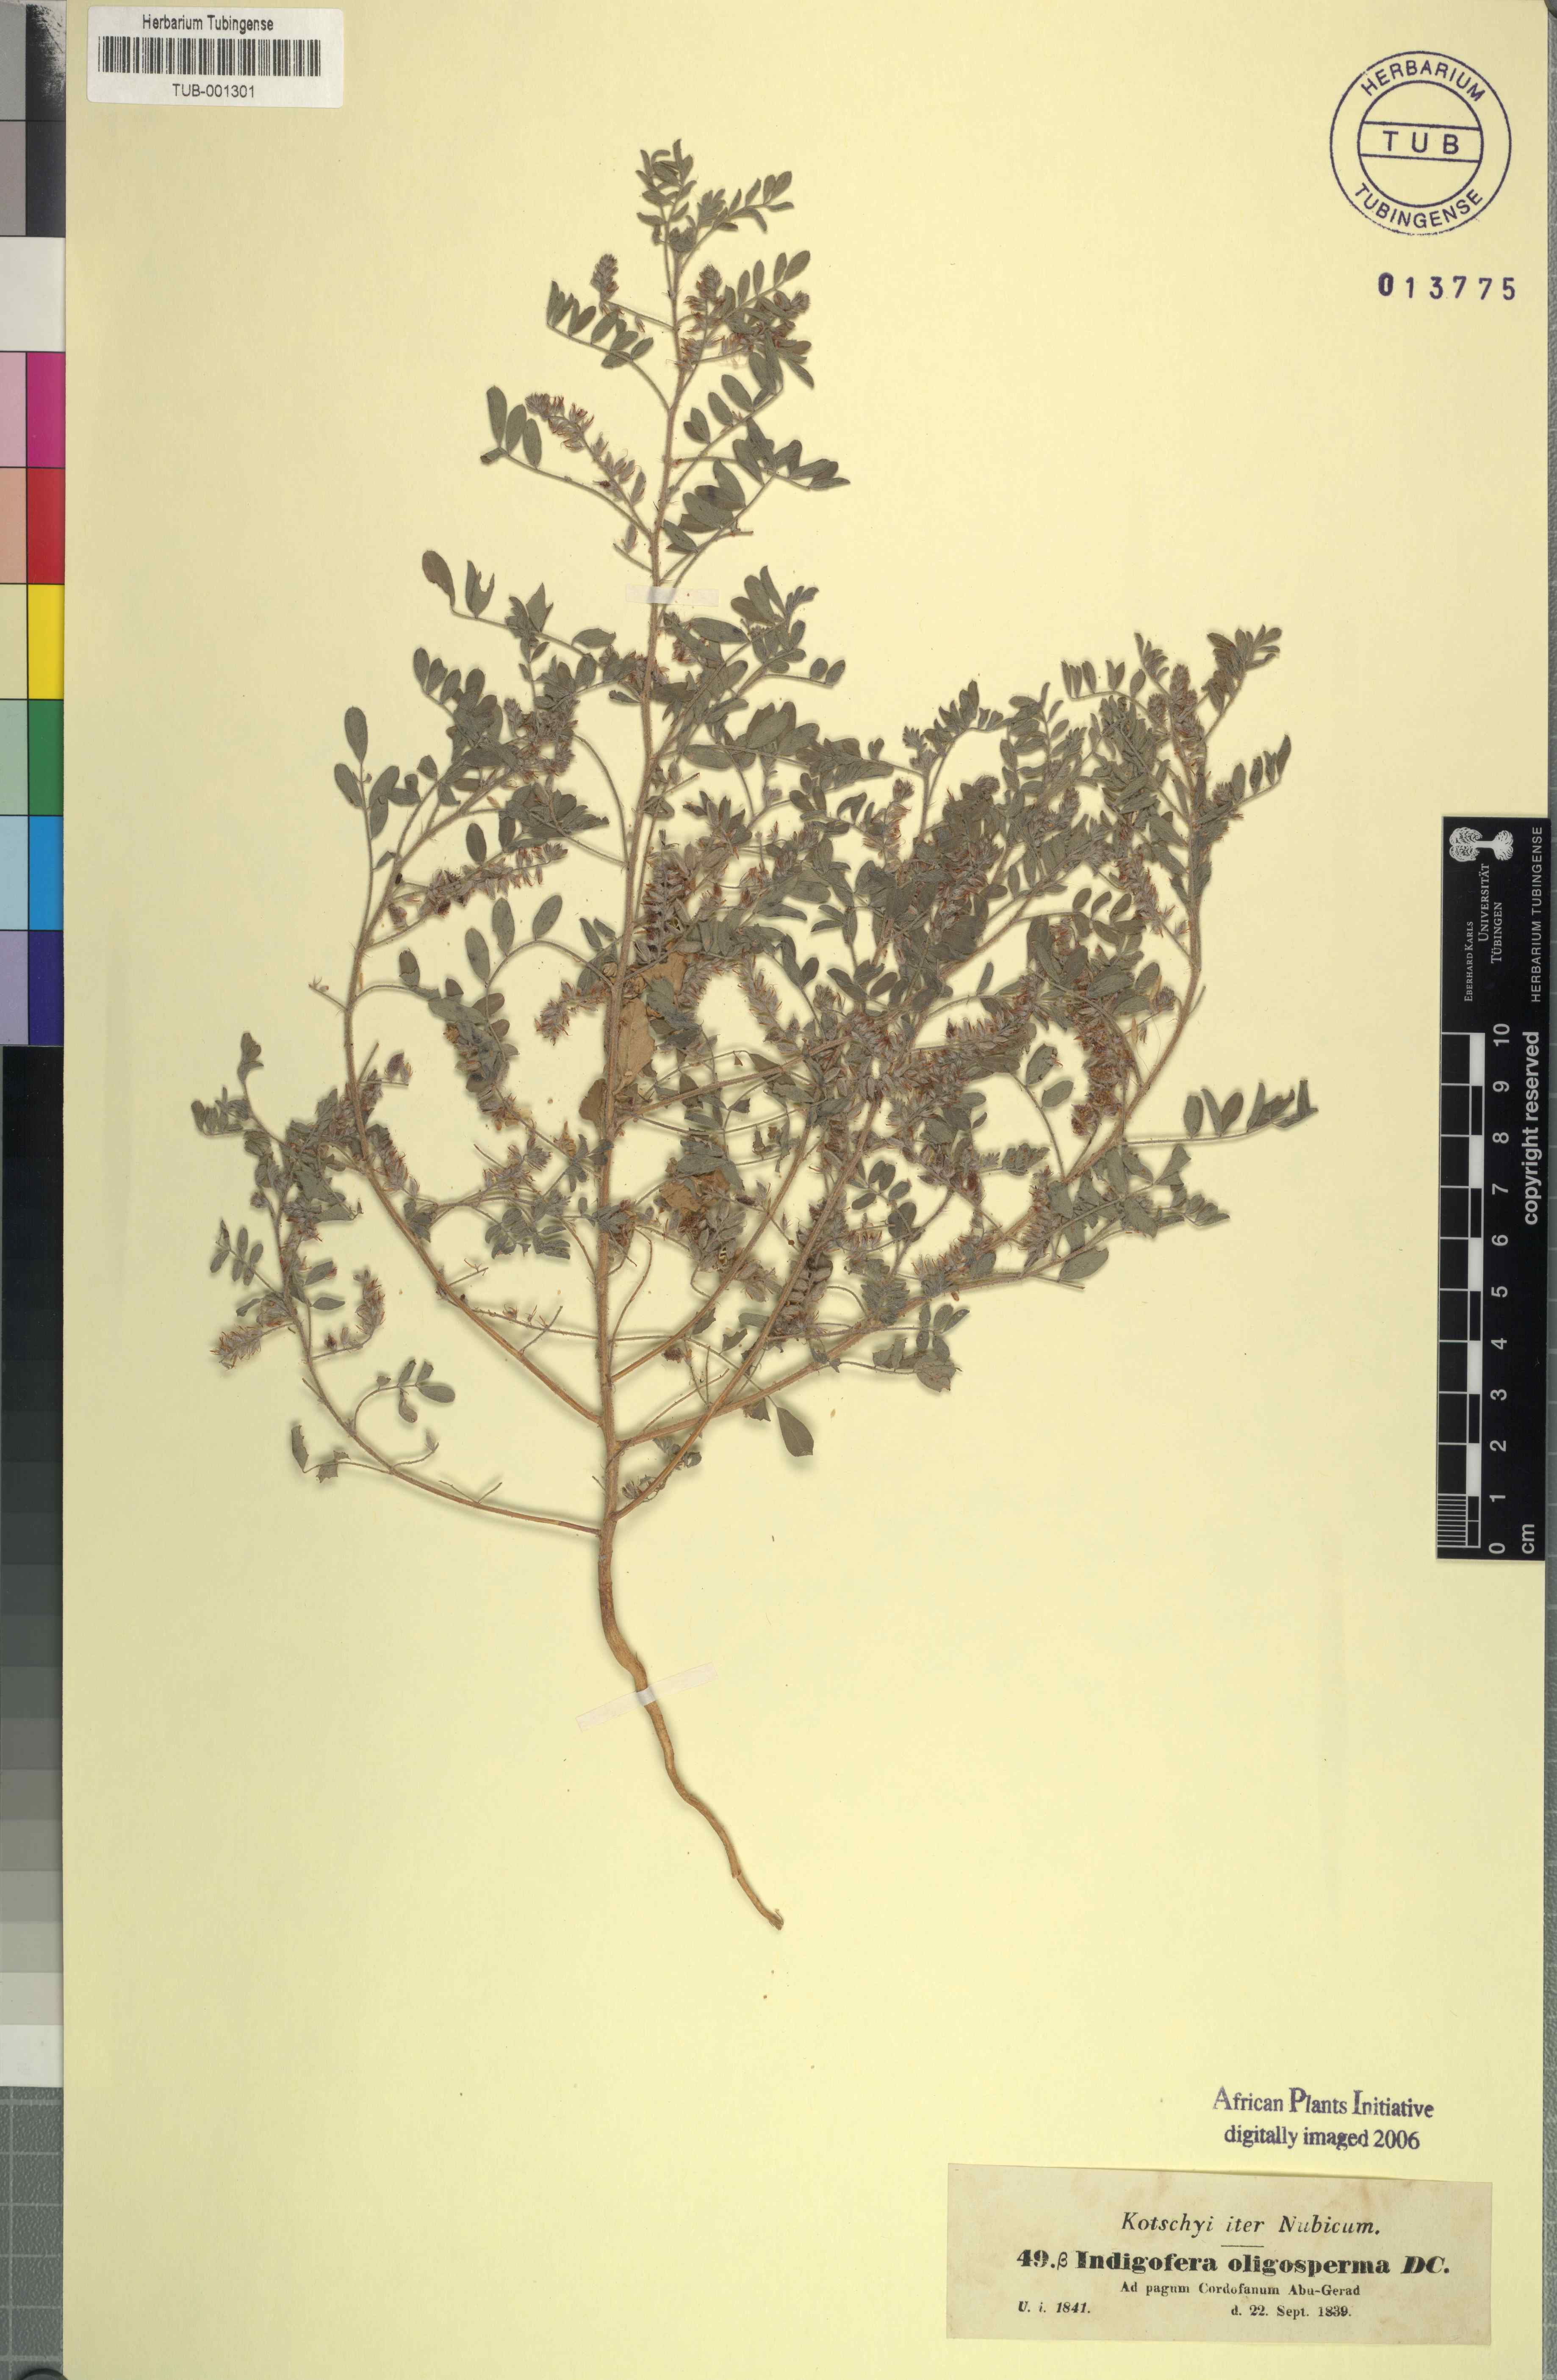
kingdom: Plantae
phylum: Tracheophyta
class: Magnoliopsida
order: Fabales
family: Fabaceae
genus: Indigofera
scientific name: Indigofera secundiflora
